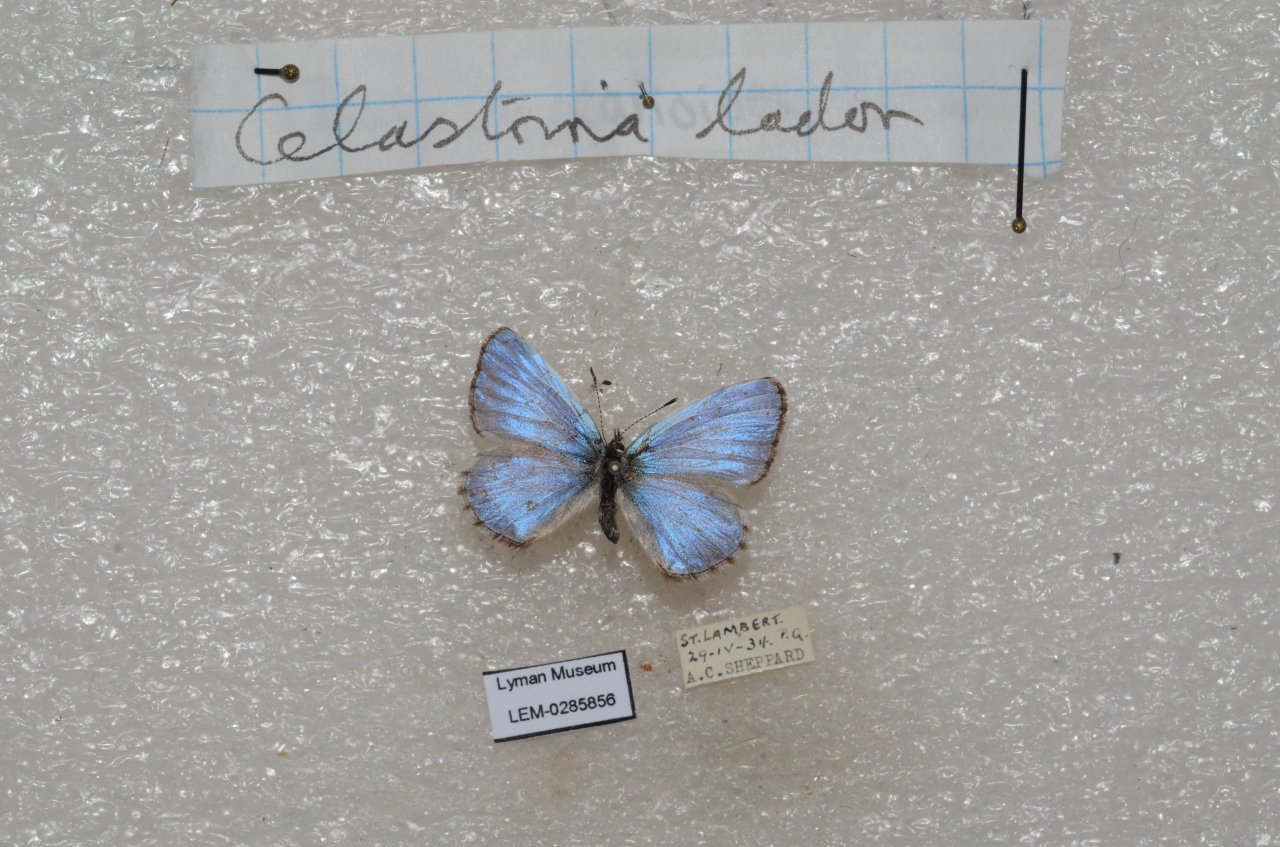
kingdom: Animalia
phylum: Arthropoda
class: Insecta
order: Lepidoptera
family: Lycaenidae
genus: Celastrina
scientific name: Celastrina lucia
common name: Northern Spring Azure
